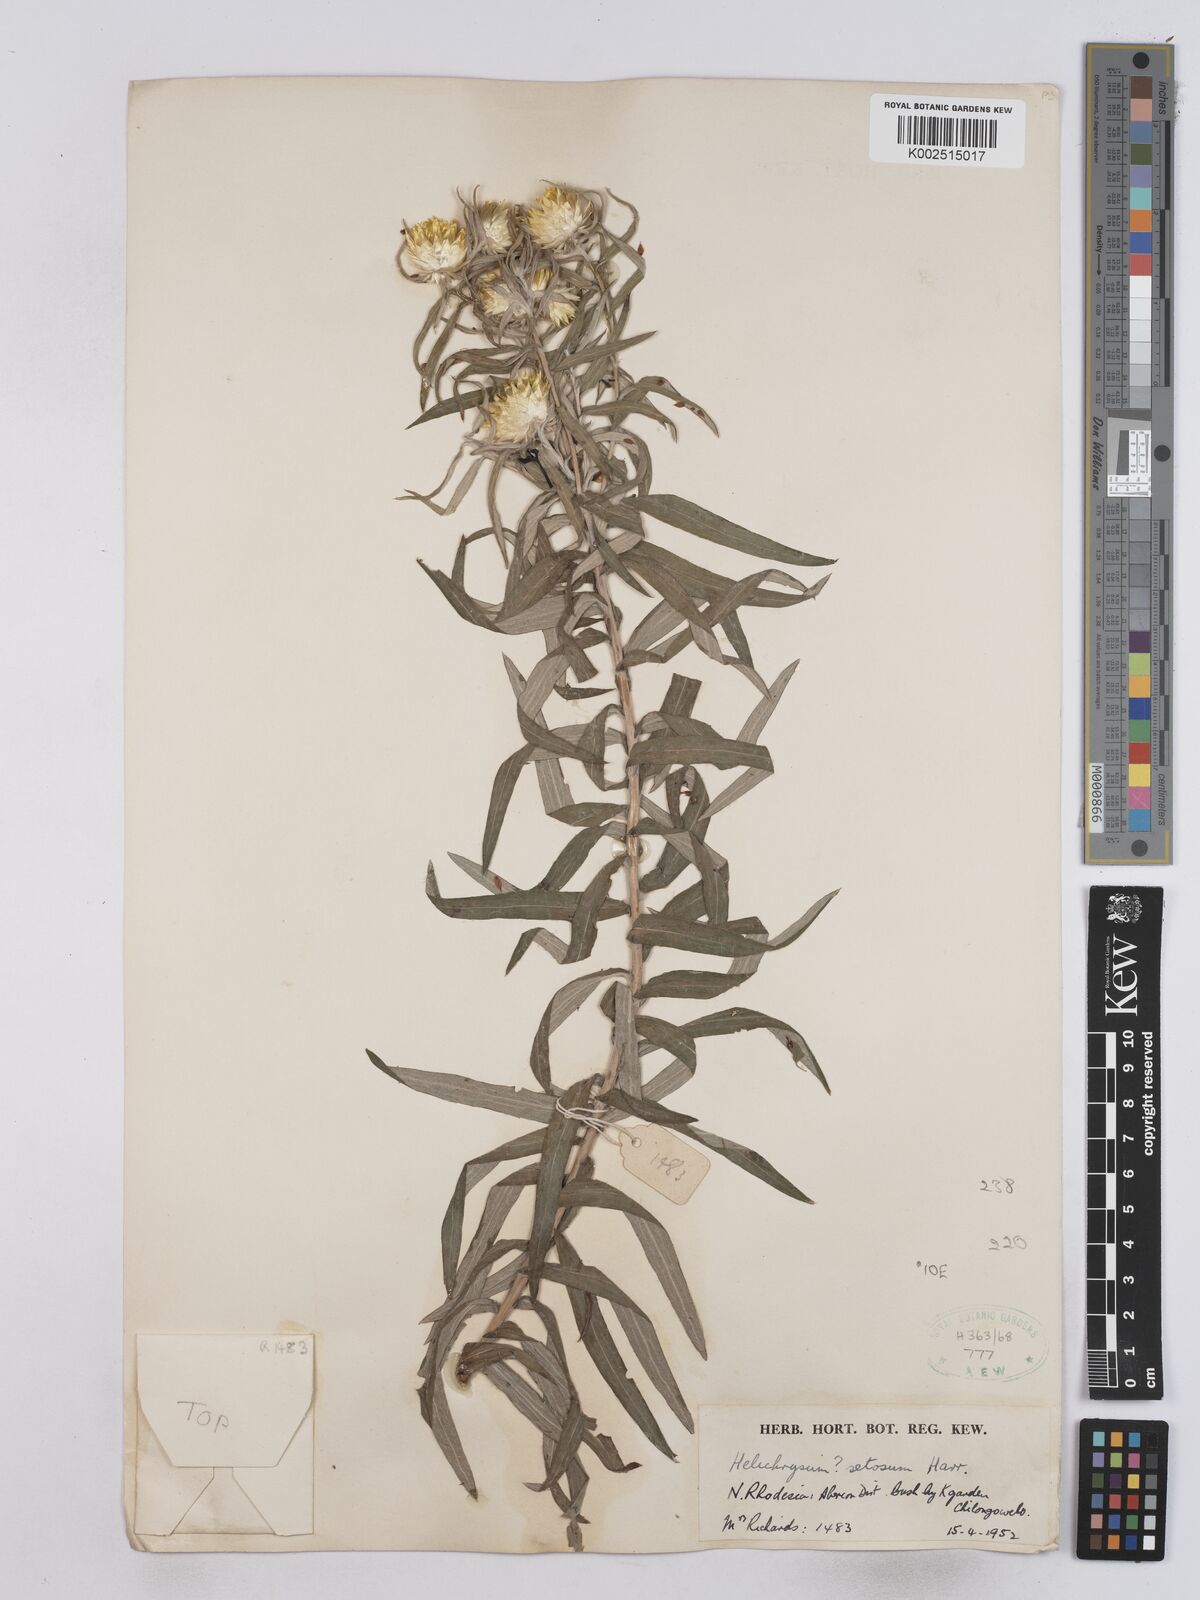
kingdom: Plantae
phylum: Tracheophyta
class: Magnoliopsida
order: Asterales
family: Asteraceae
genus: Helichrysum
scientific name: Helichrysum setosum
